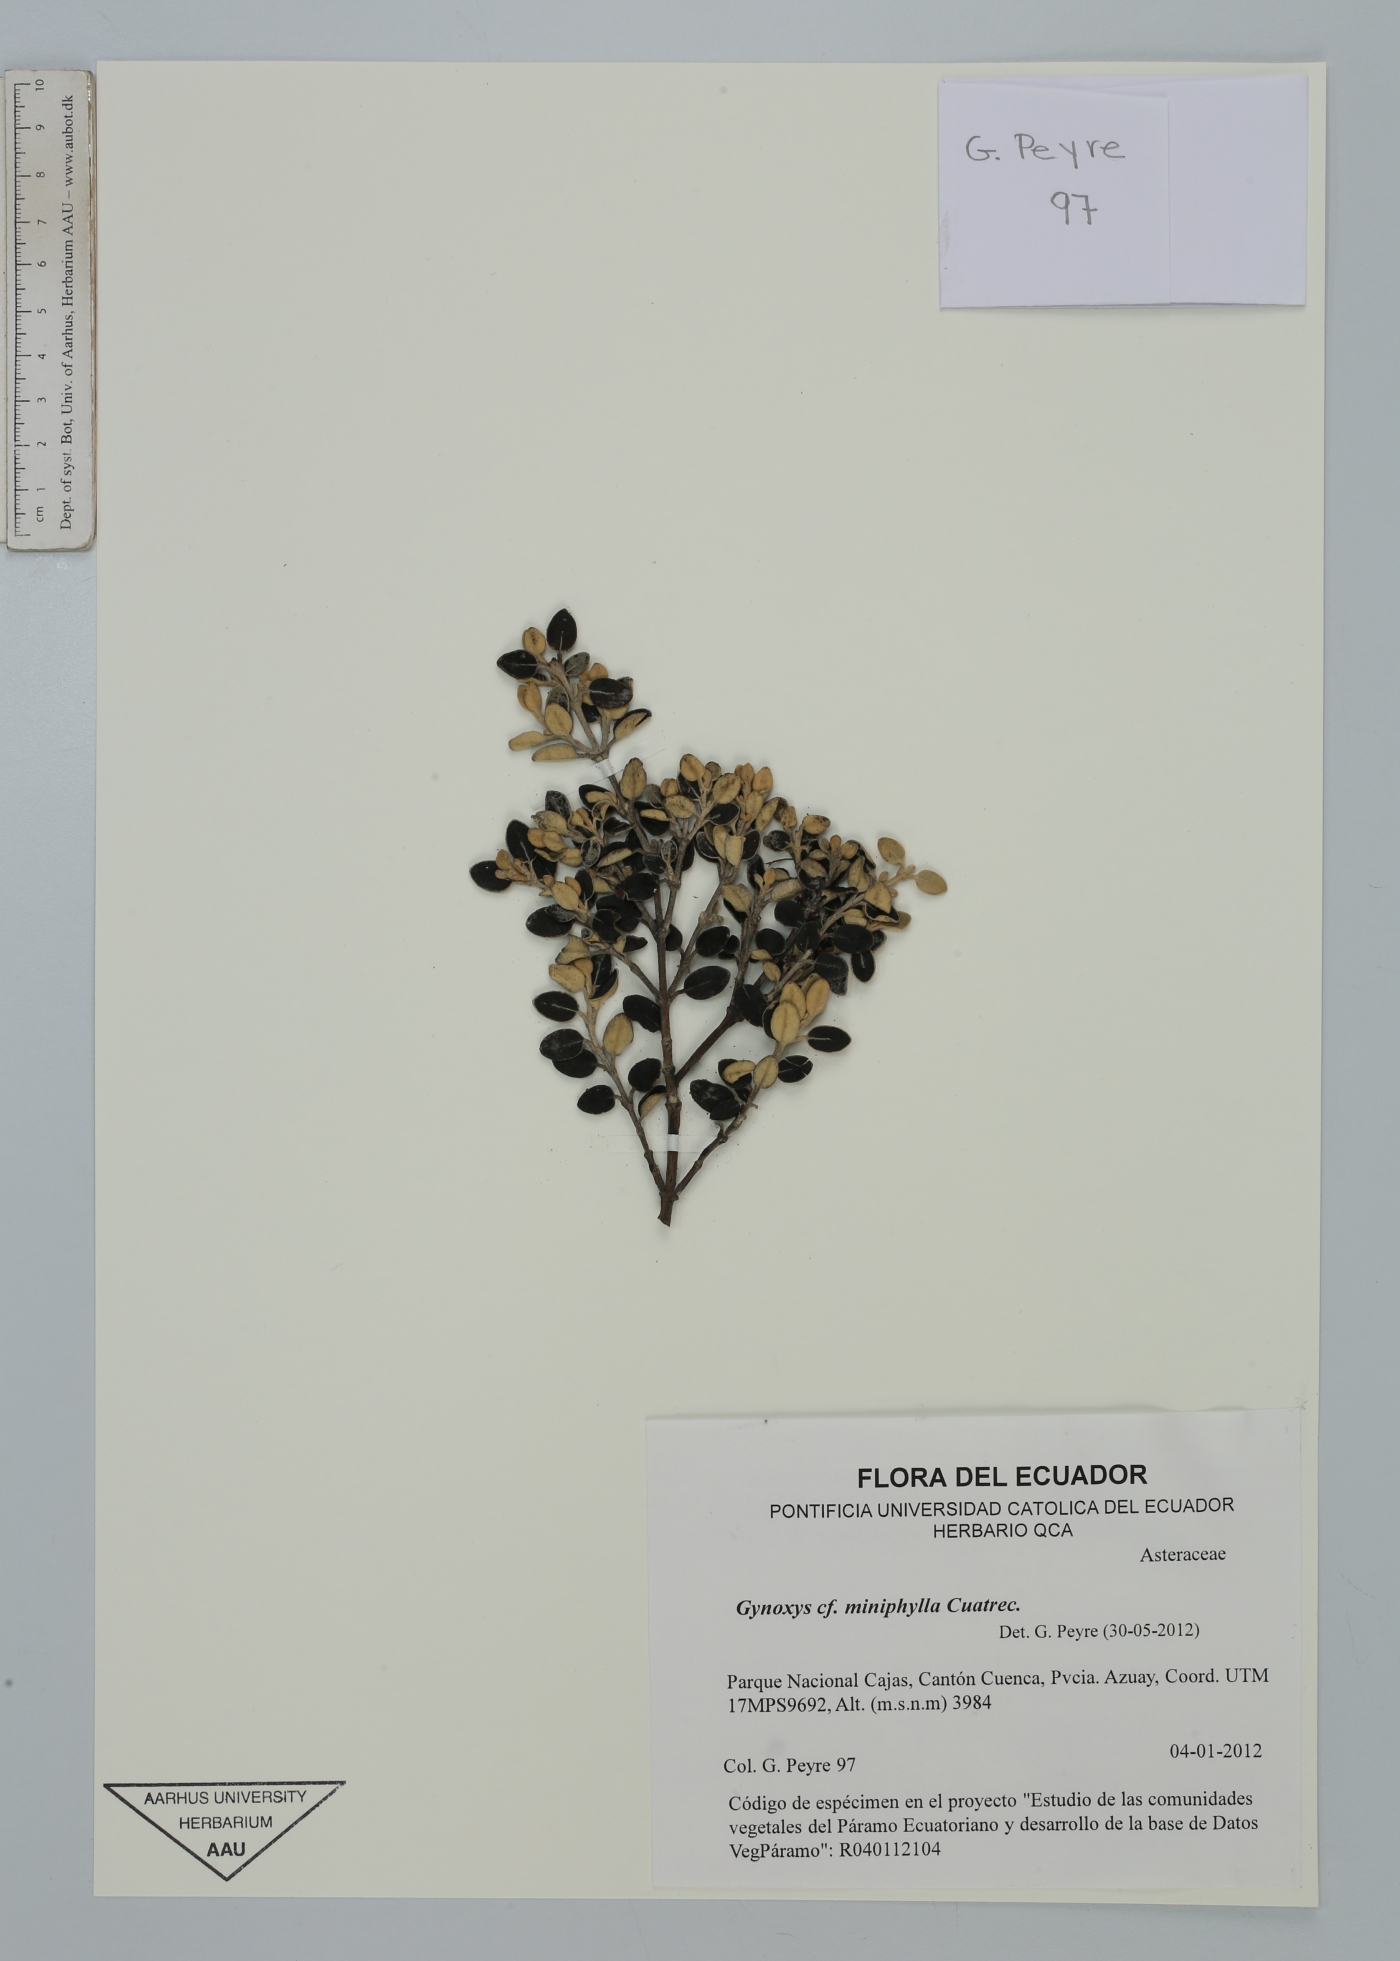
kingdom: Plantae
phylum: Tracheophyta
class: Magnoliopsida
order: Asterales
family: Asteraceae
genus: Gynoxys
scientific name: Gynoxys miniphylla
